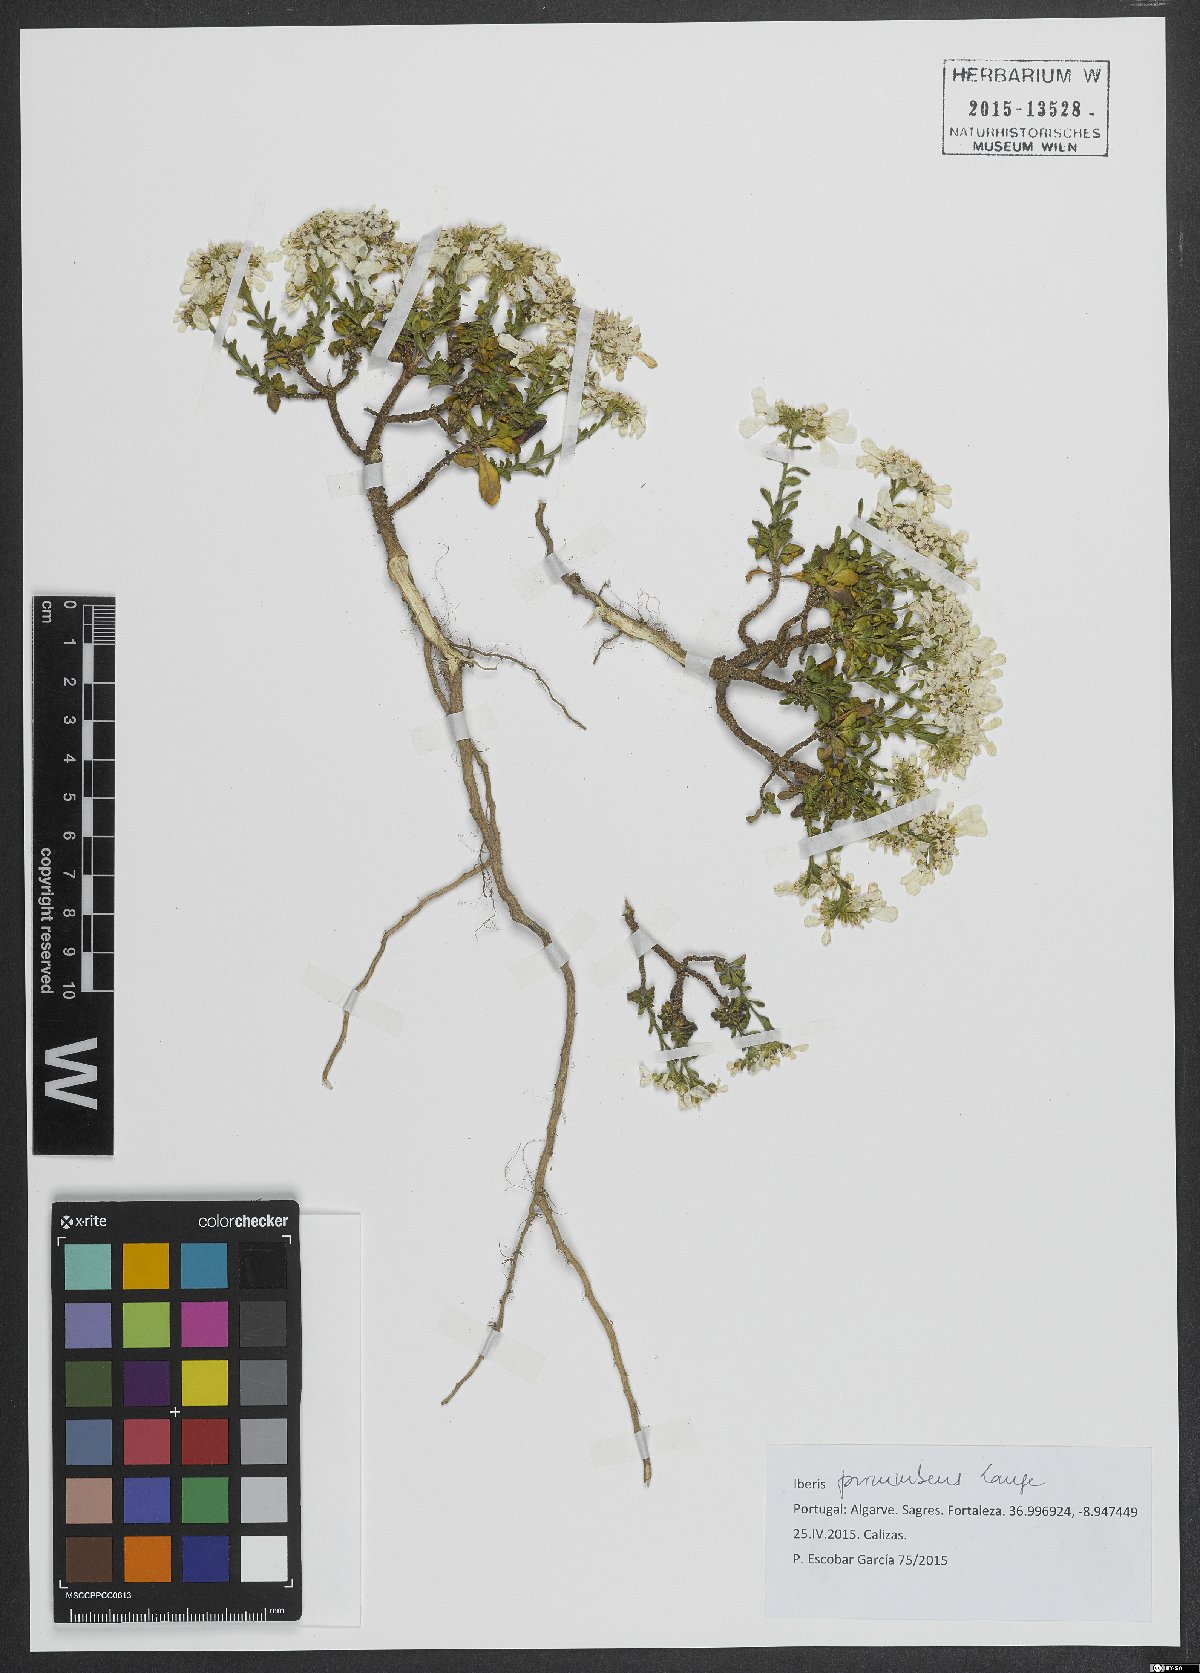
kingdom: Plantae
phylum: Tracheophyta
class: Magnoliopsida
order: Brassicales
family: Brassicaceae
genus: Iberis
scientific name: Iberis procumbens
